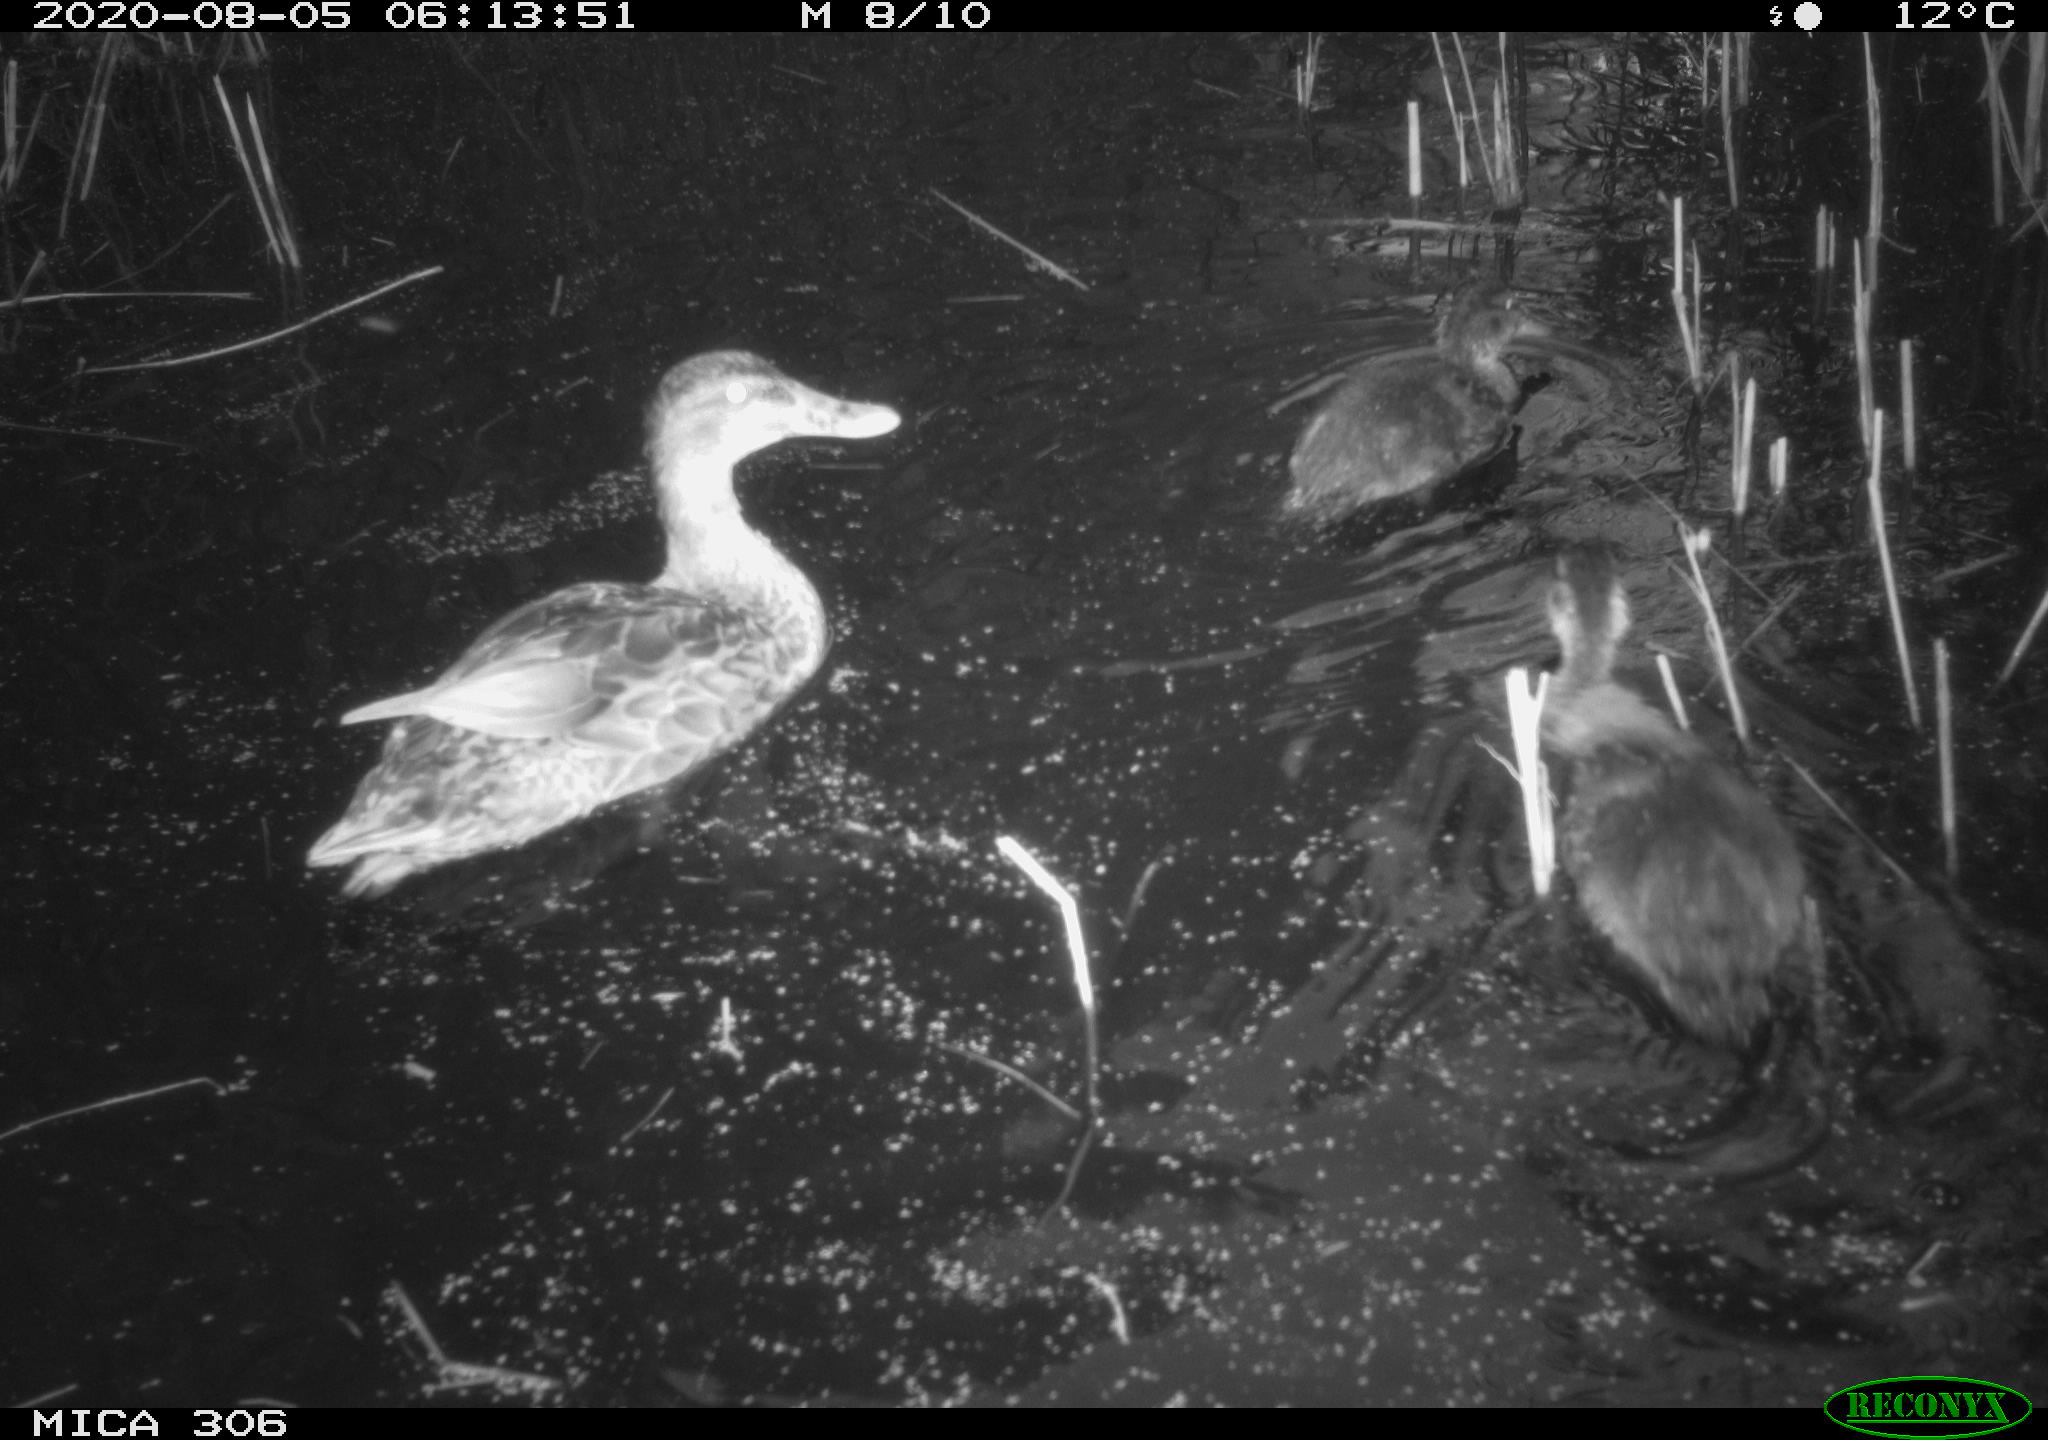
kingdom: Animalia
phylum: Chordata
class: Aves
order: Anseriformes
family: Anatidae
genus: Anas
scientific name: Anas platyrhynchos
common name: Mallard
